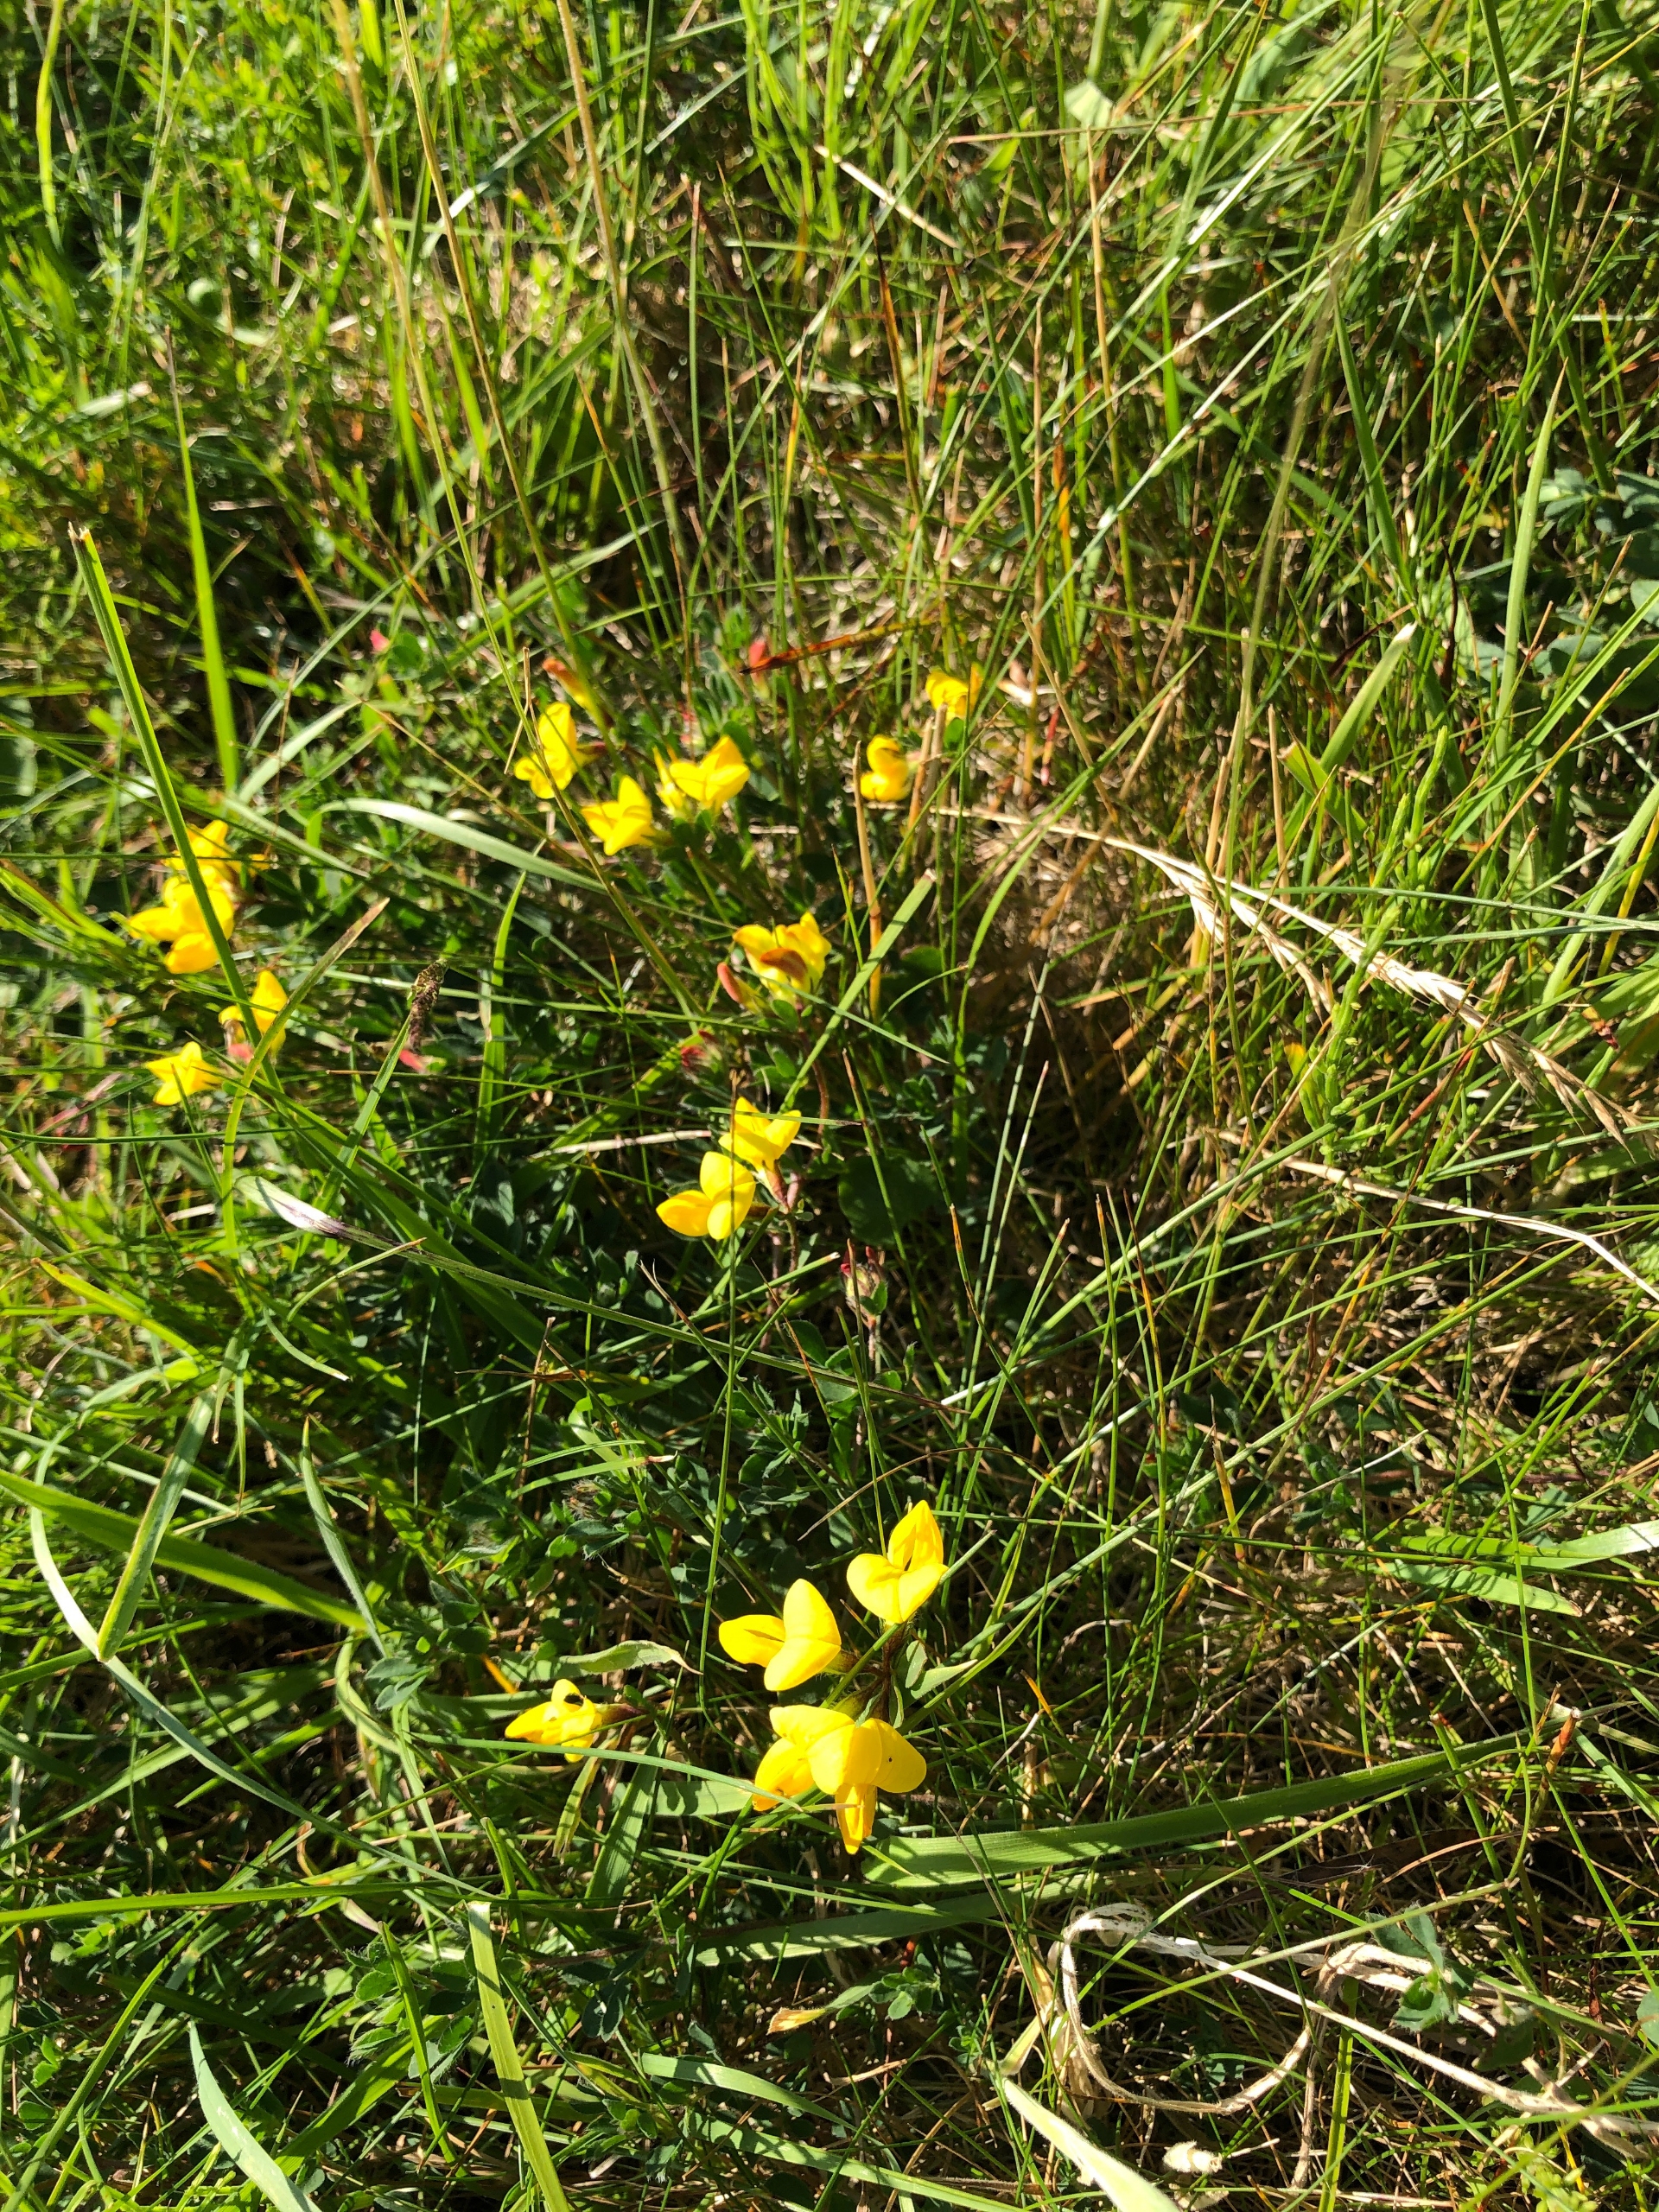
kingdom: Plantae
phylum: Tracheophyta
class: Magnoliopsida
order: Fabales
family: Fabaceae
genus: Lotus
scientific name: Lotus corniculatus
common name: Almindelig kællingetand
